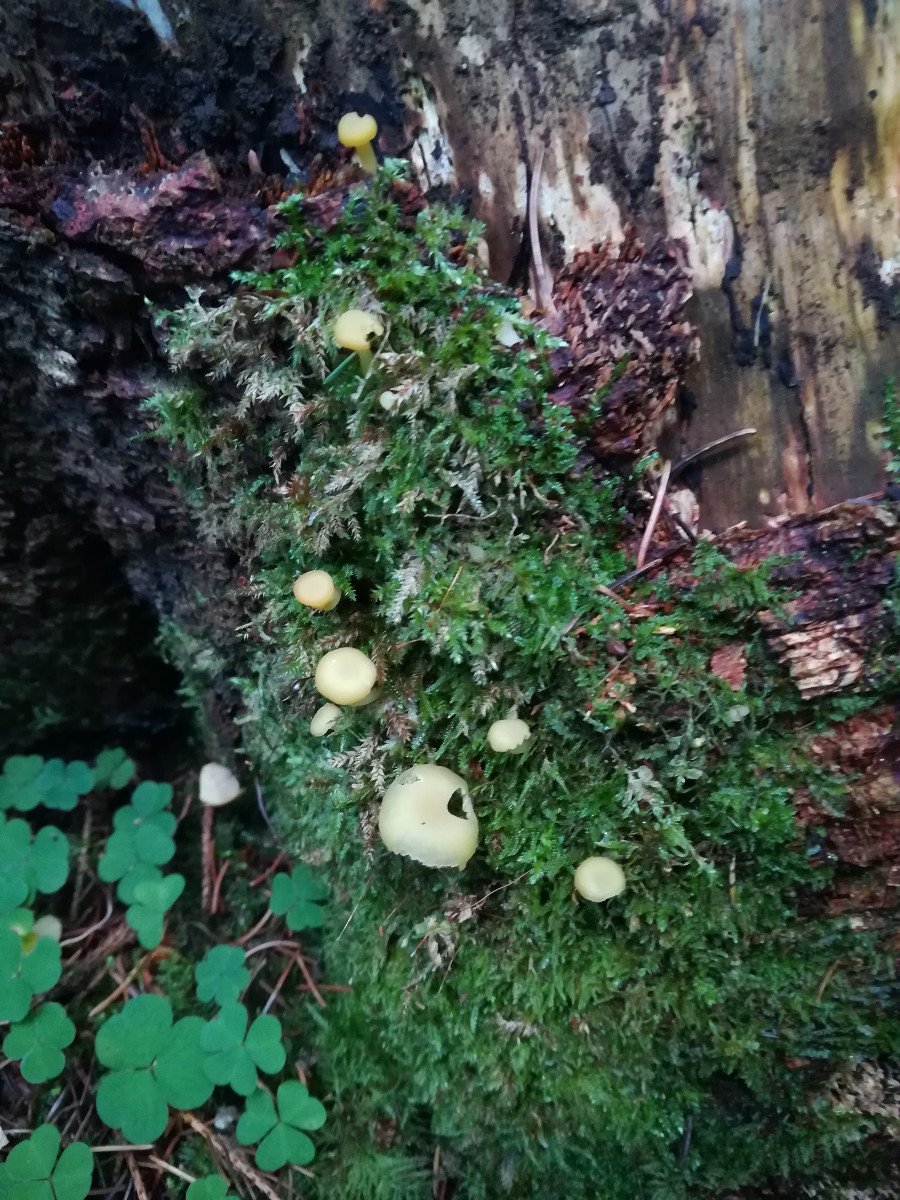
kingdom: Fungi
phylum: Basidiomycota
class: Agaricomycetes
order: Agaricales
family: Hygrophoraceae
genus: Chrysomphalina
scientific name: Chrysomphalina grossula
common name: stød-gyldenblad
